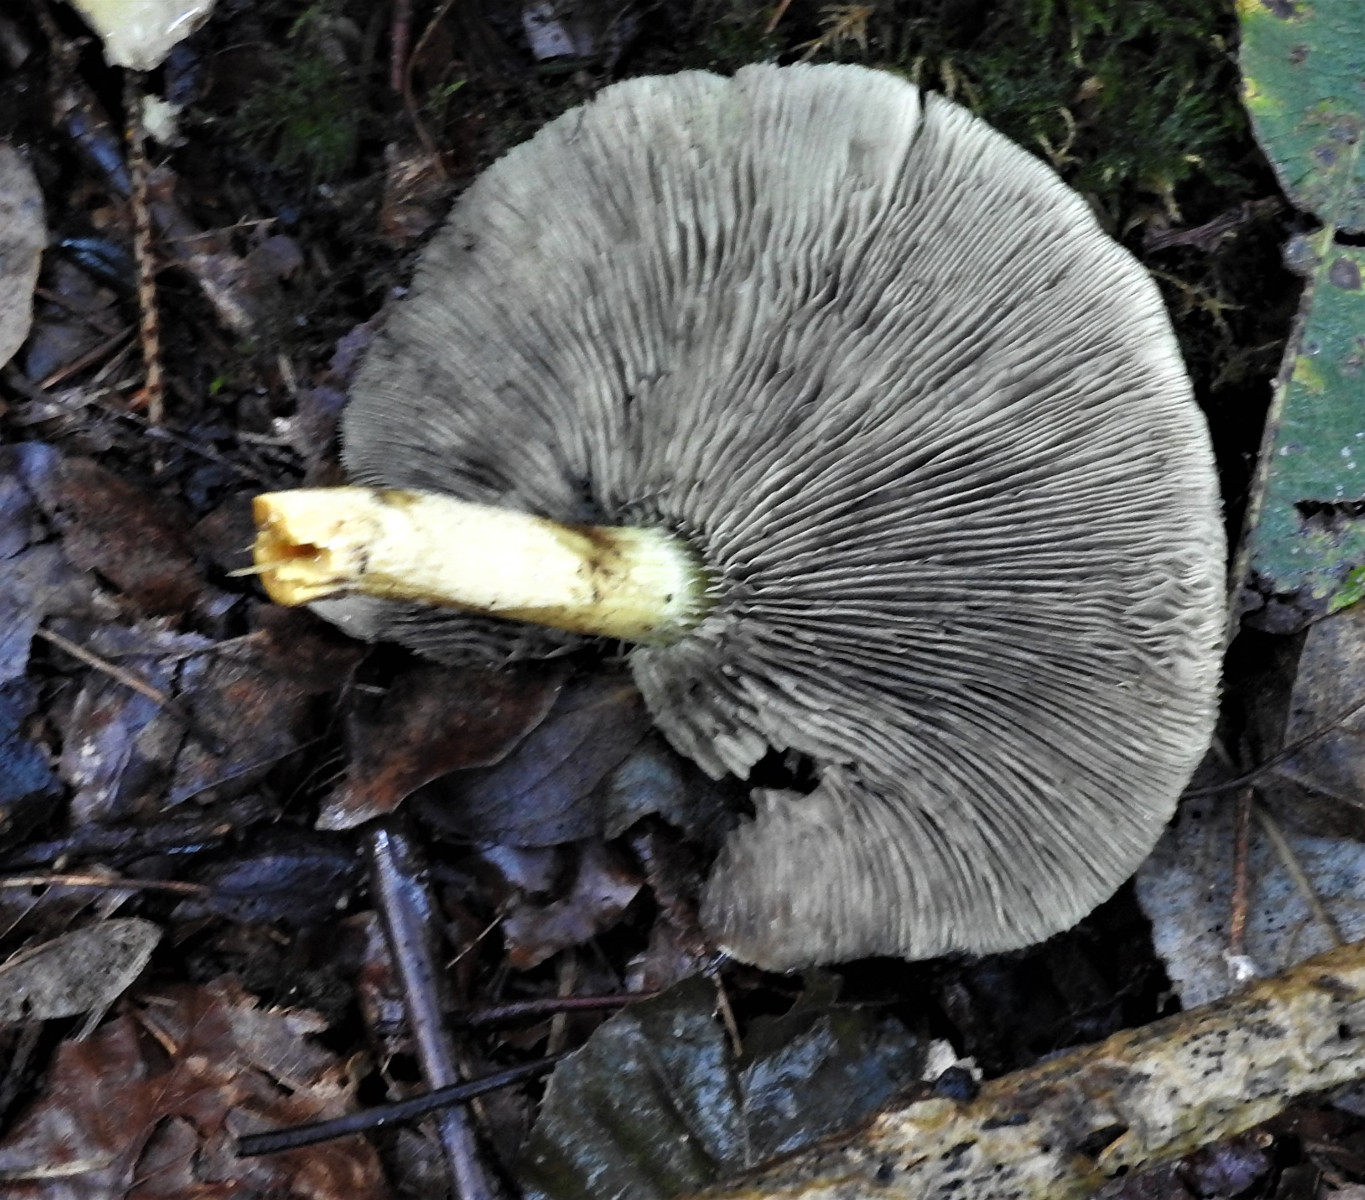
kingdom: Fungi
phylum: Basidiomycota
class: Agaricomycetes
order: Agaricales
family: Strophariaceae
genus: Hypholoma
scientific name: Hypholoma fasciculare
